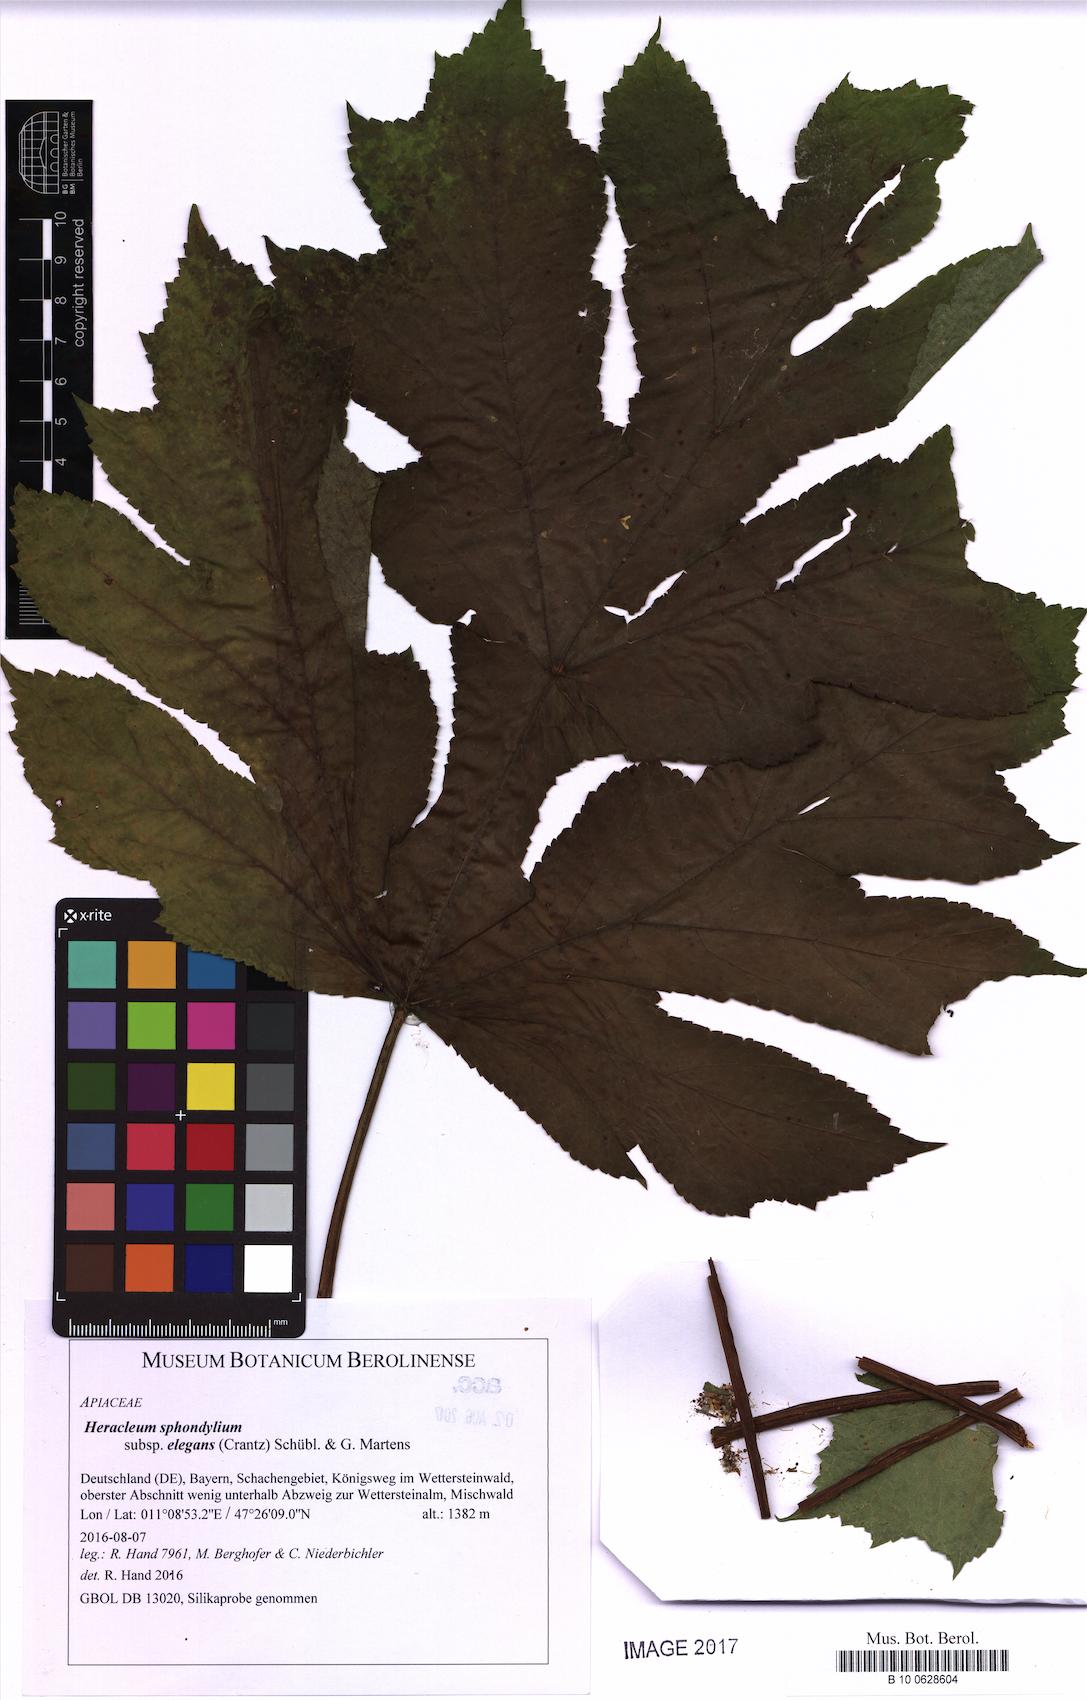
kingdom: Plantae
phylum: Tracheophyta
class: Magnoliopsida
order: Apiales
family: Apiaceae
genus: Heracleum
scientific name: Heracleum sphondylium
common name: Hogweed
